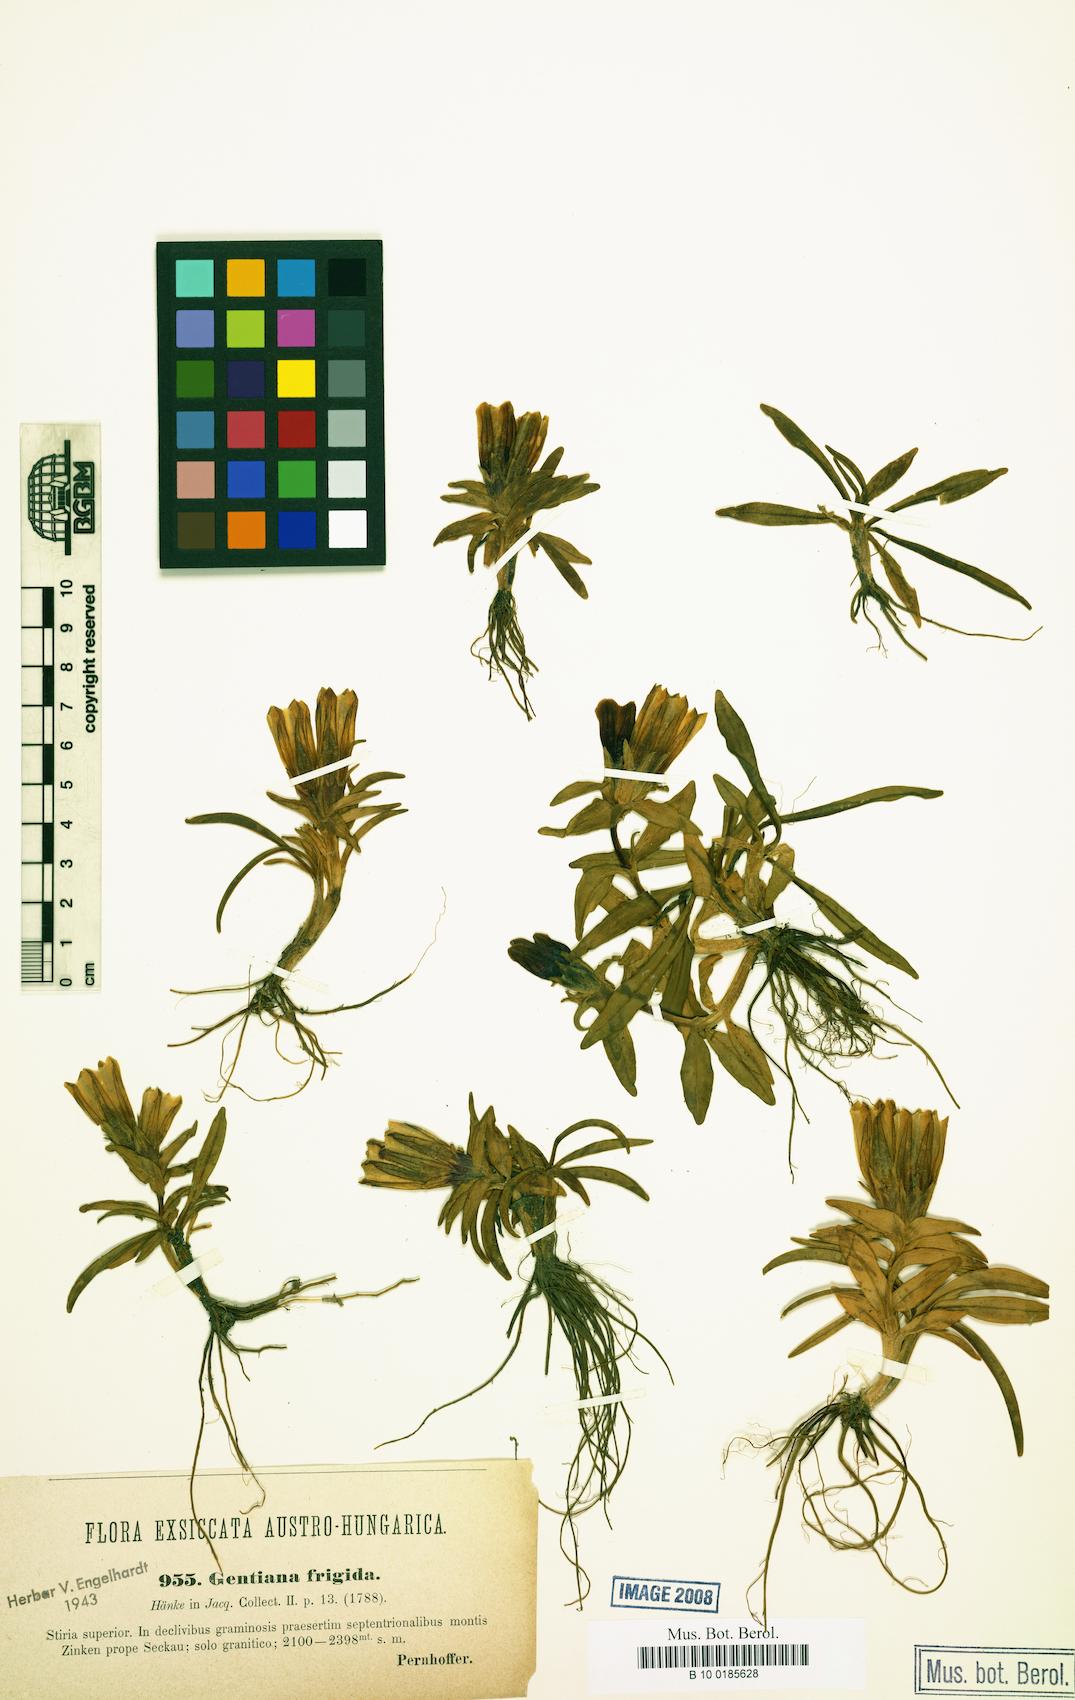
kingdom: Plantae
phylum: Tracheophyta
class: Magnoliopsida
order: Gentianales
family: Gentianaceae
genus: Gentiana
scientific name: Gentiana frigida
